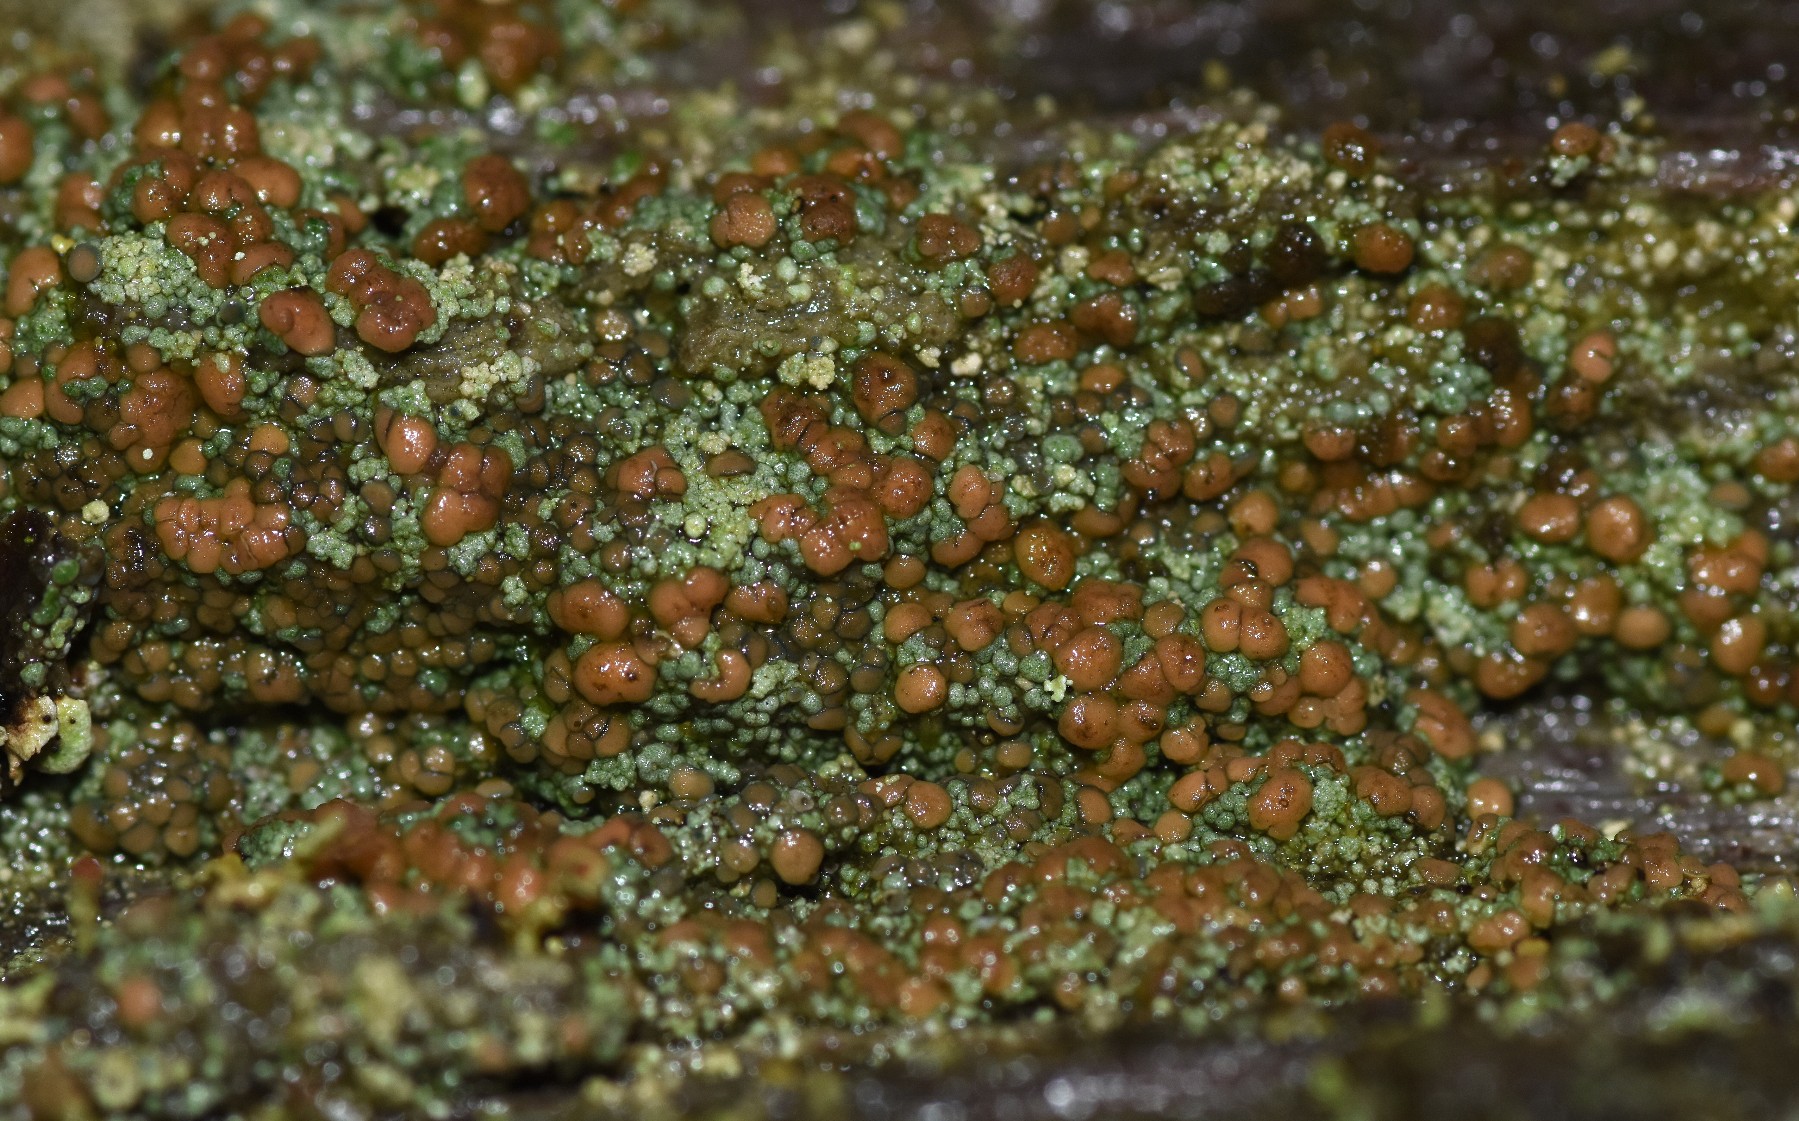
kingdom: Fungi
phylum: Ascomycota
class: Lecanoromycetes
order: Baeomycetales
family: Trapeliaceae
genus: Trapeliopsis
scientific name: Trapeliopsis granulosa
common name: forskelligfarvet skivelav
